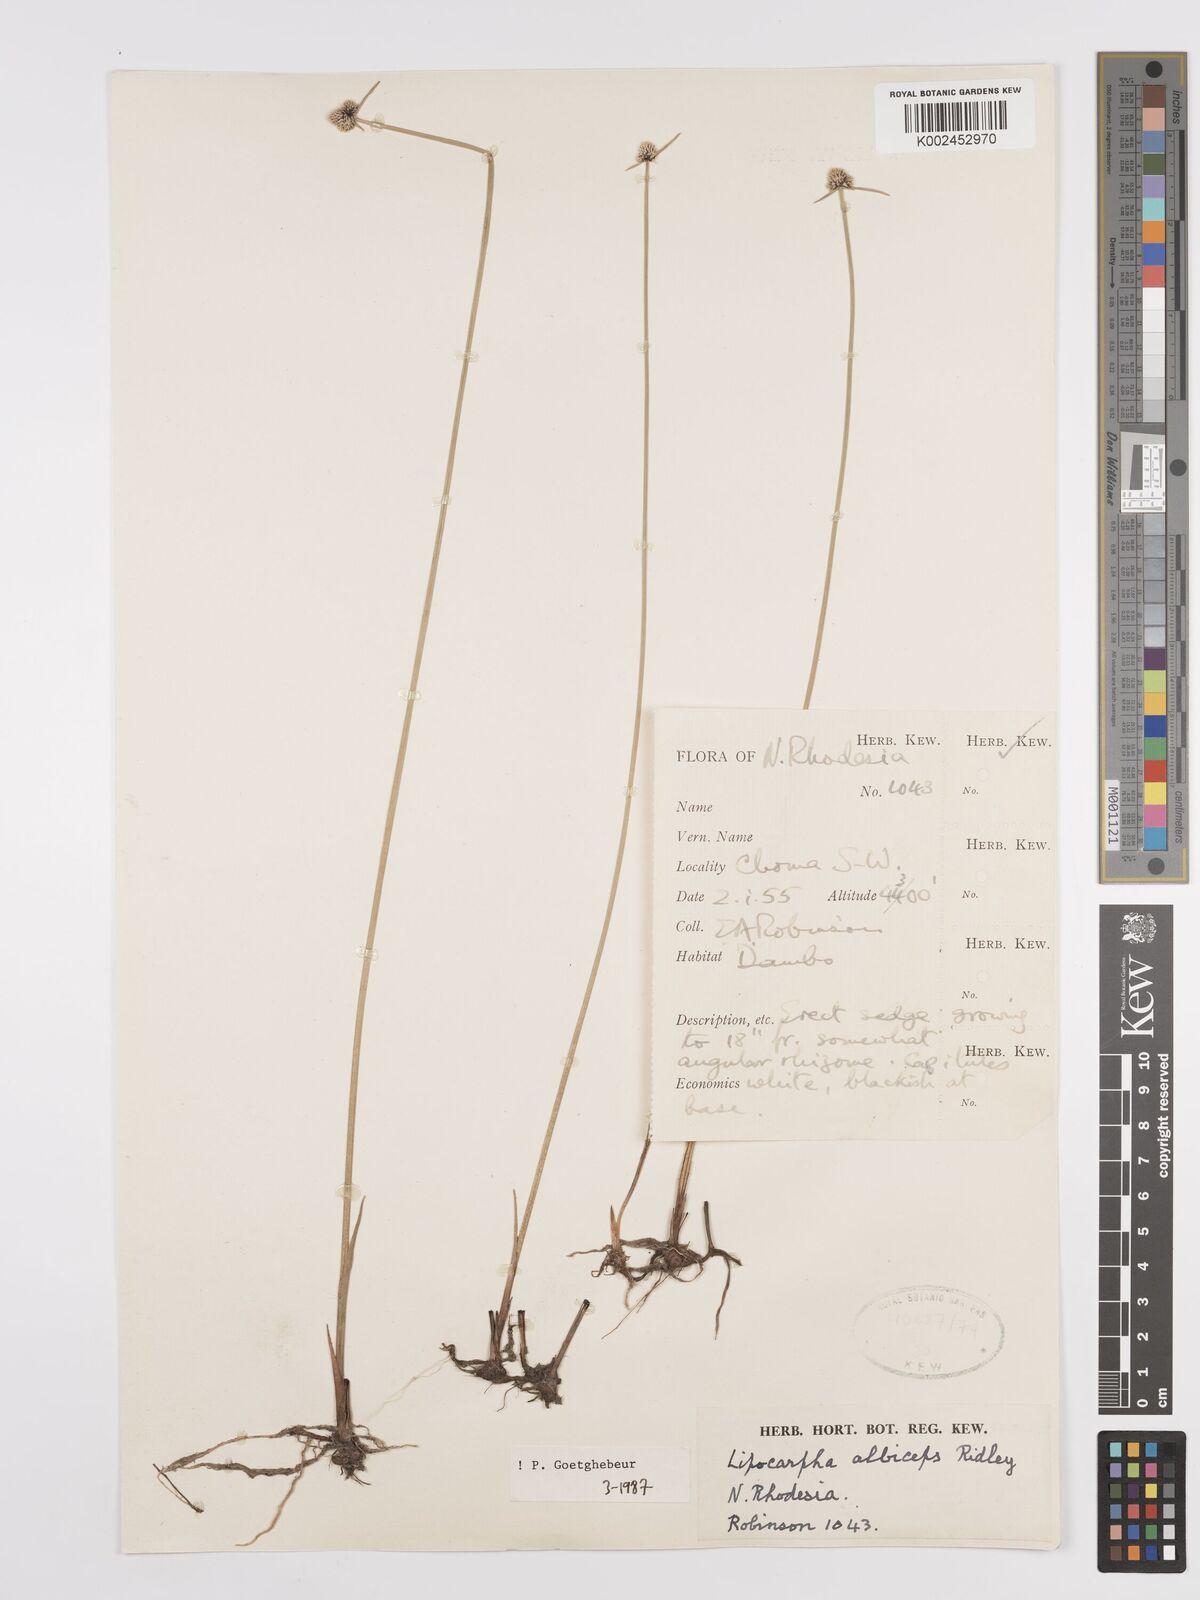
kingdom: Plantae
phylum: Tracheophyta
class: Liliopsida
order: Poales
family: Cyperaceae
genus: Cyperus
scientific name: Cyperus albiceps
